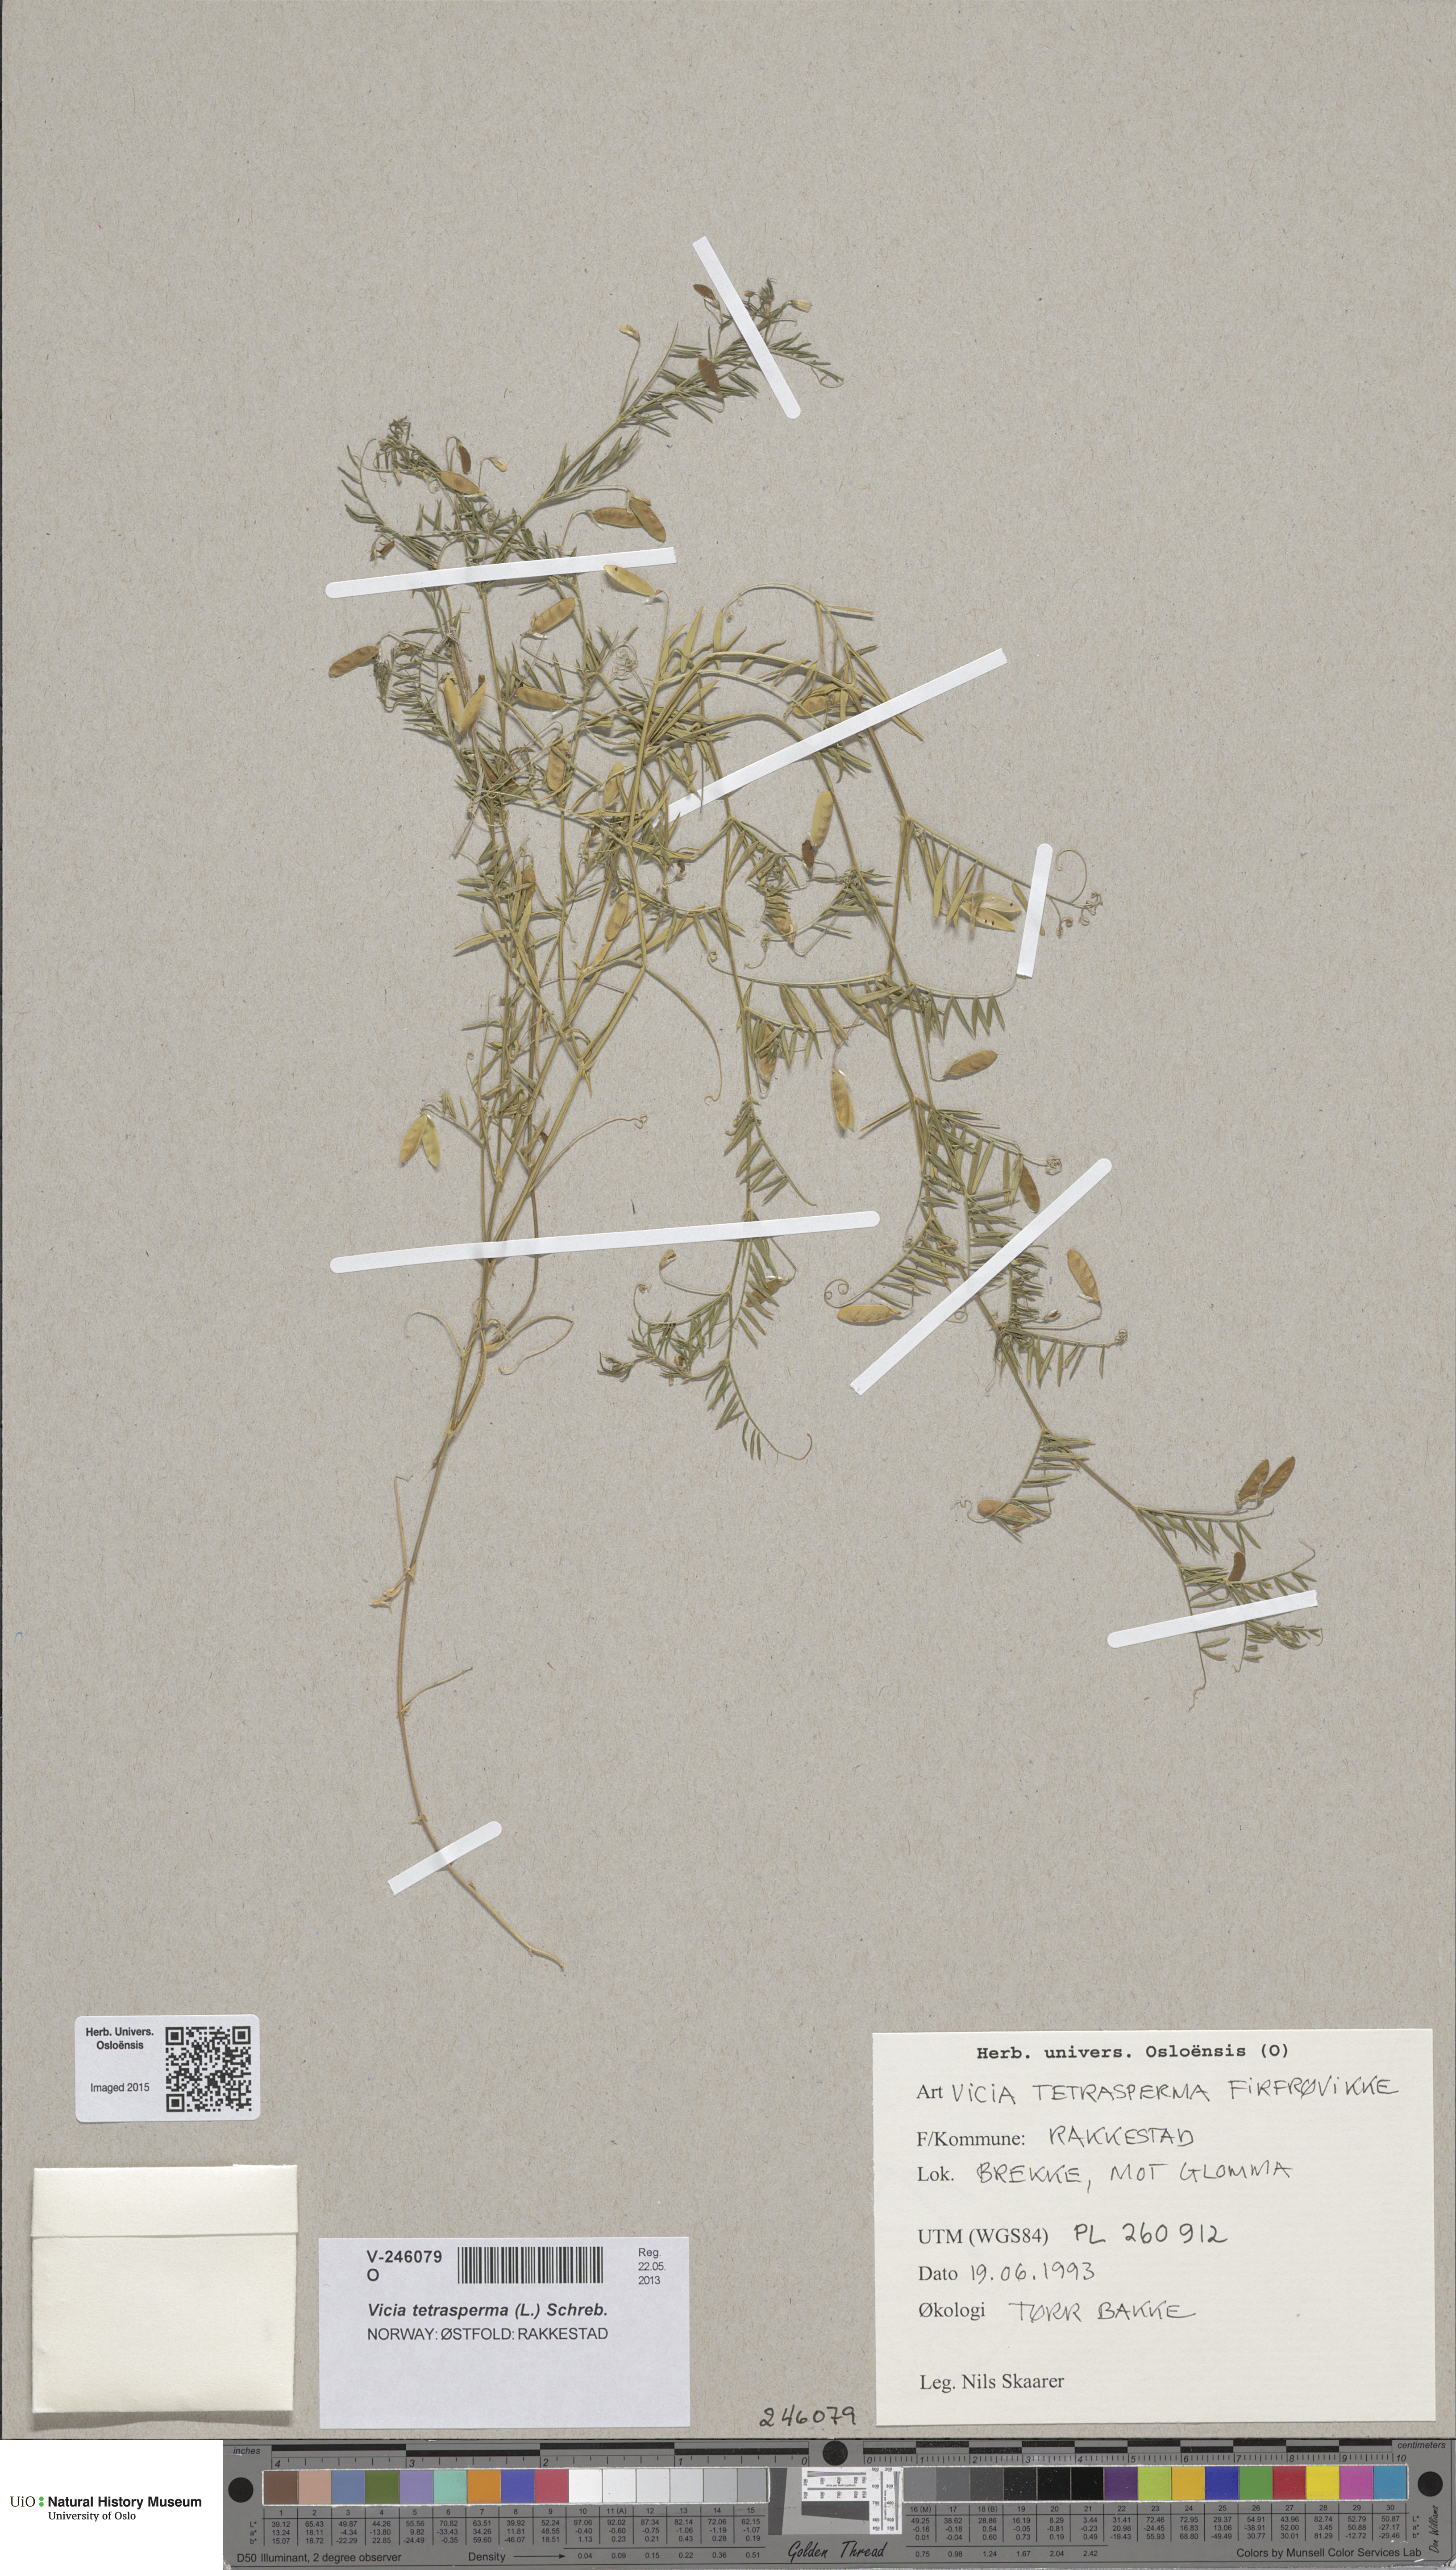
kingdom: Plantae
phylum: Tracheophyta
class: Magnoliopsida
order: Fabales
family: Fabaceae
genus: Vicia
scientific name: Vicia tetrasperma
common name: Smooth tare
